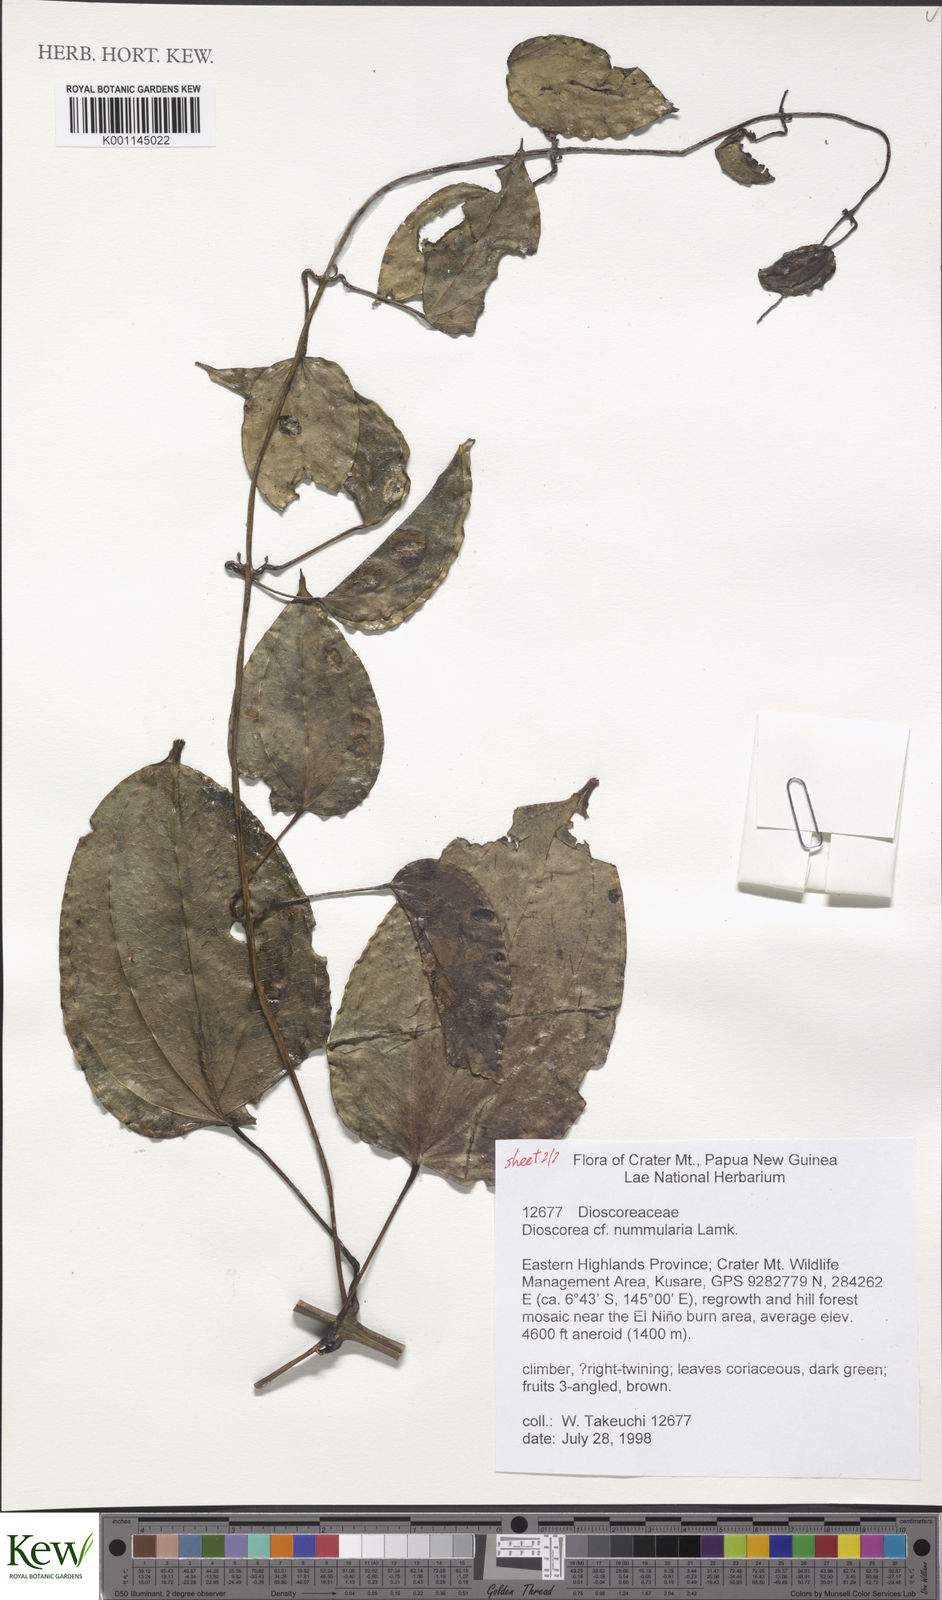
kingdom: Plantae
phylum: Tracheophyta
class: Liliopsida
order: Dioscoreales
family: Dioscoreaceae
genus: Dioscorea
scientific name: Dioscorea nummularia
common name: Pacific yam
